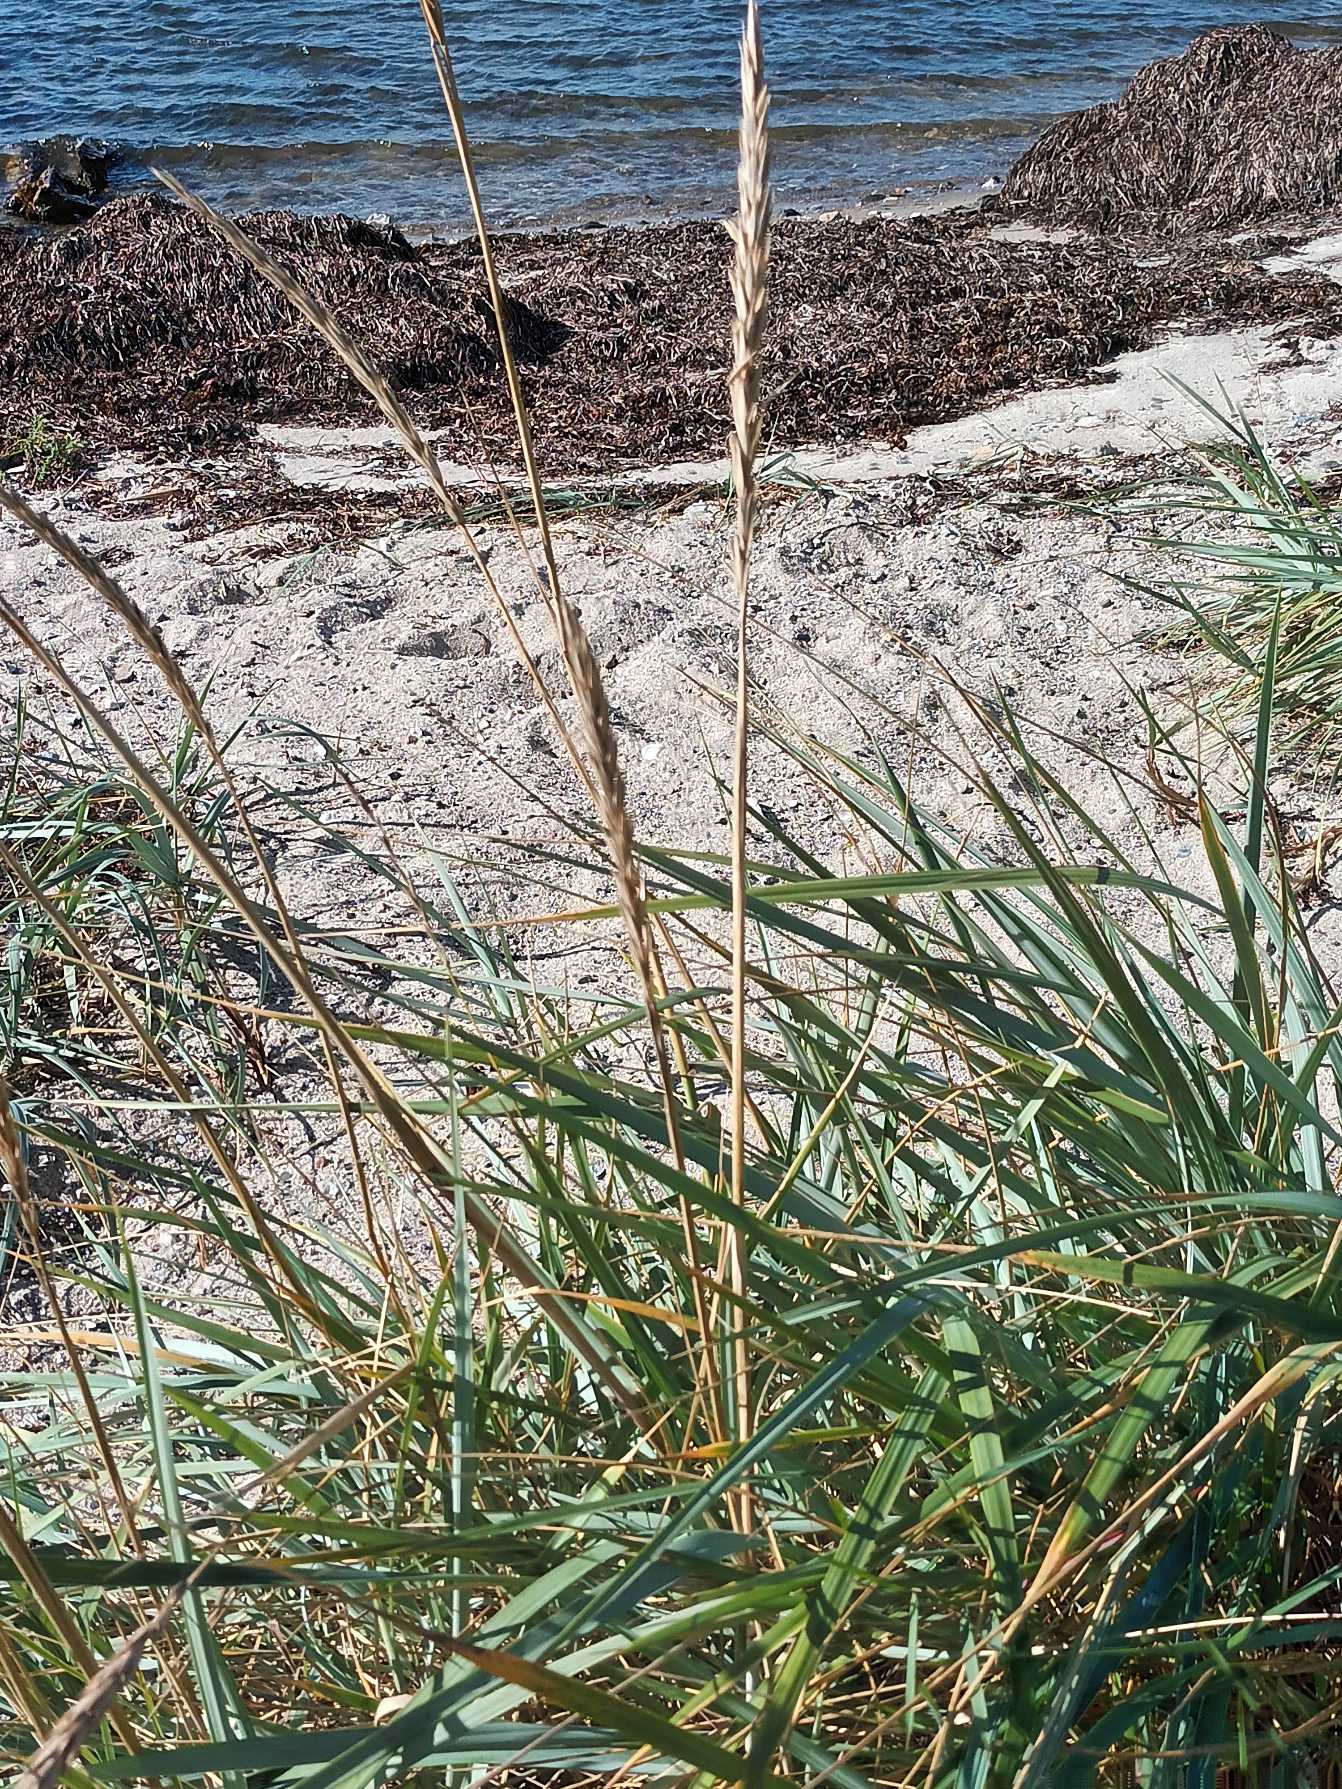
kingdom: Plantae
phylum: Tracheophyta
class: Liliopsida
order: Poales
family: Poaceae
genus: Leymus
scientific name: Leymus arenarius
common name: Marehalm
